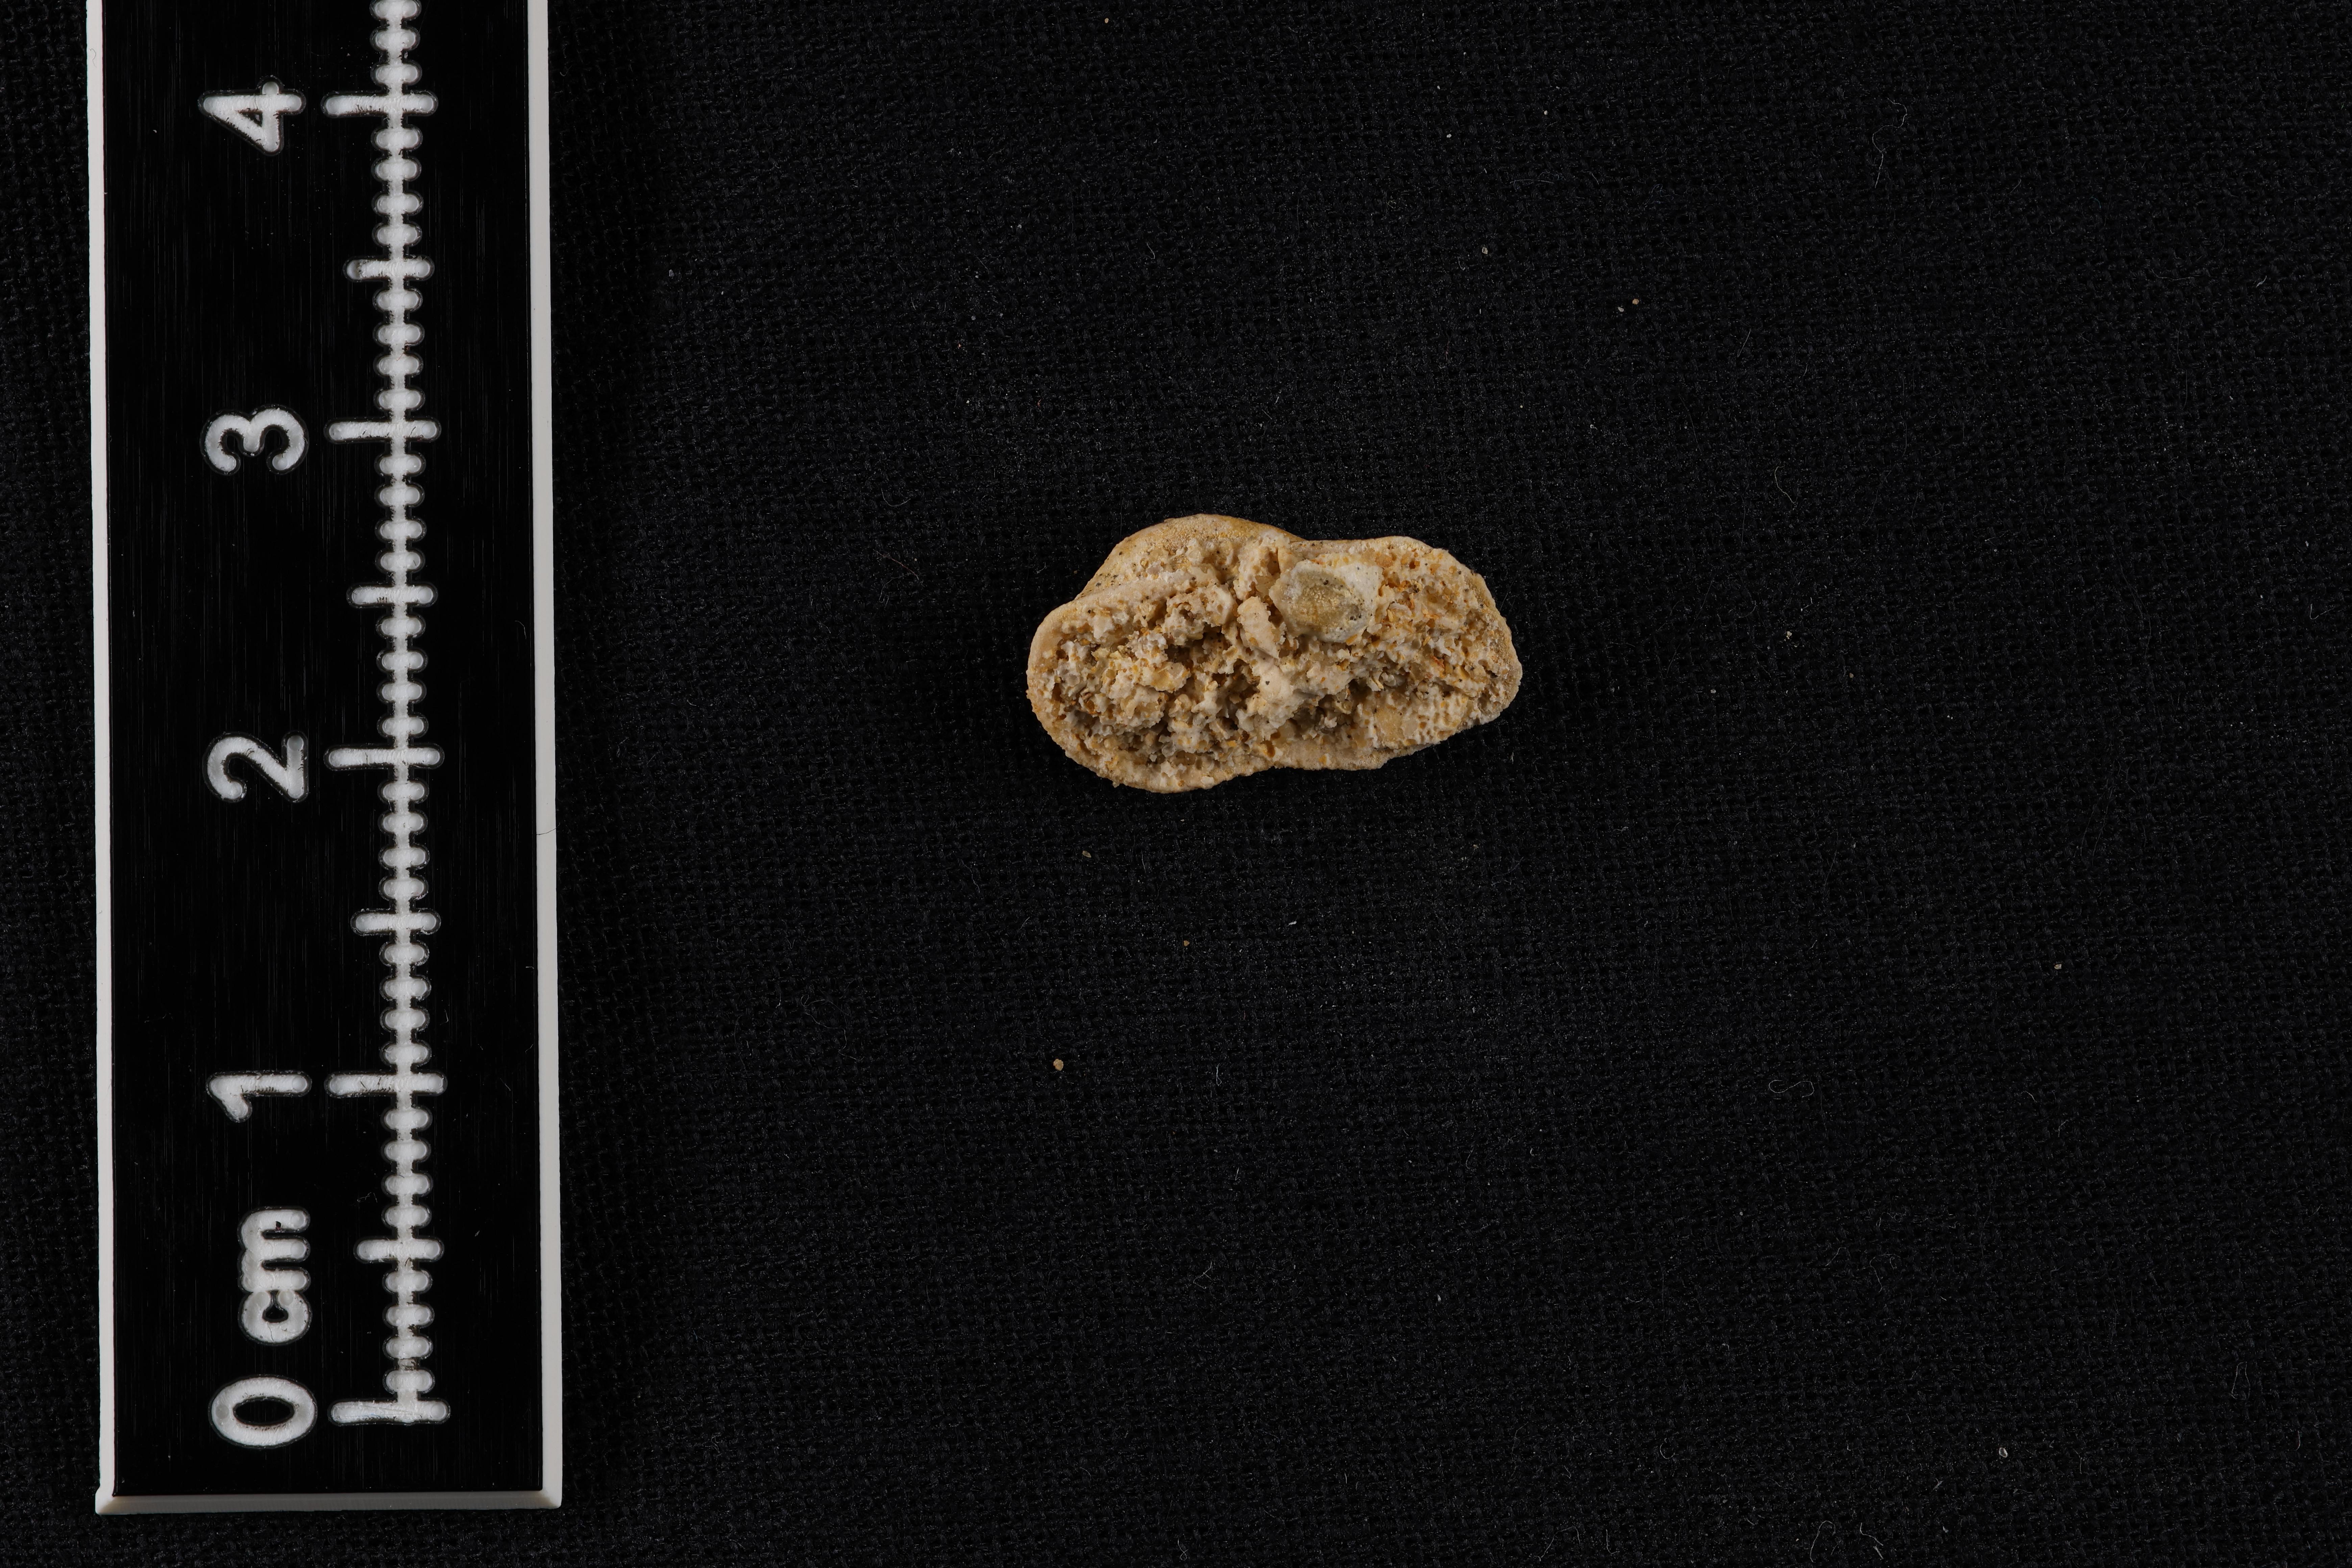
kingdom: Animalia
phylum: Mollusca
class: Bivalvia
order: Arcida
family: Cucullaeidae
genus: Idonearca
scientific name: Idonearca
